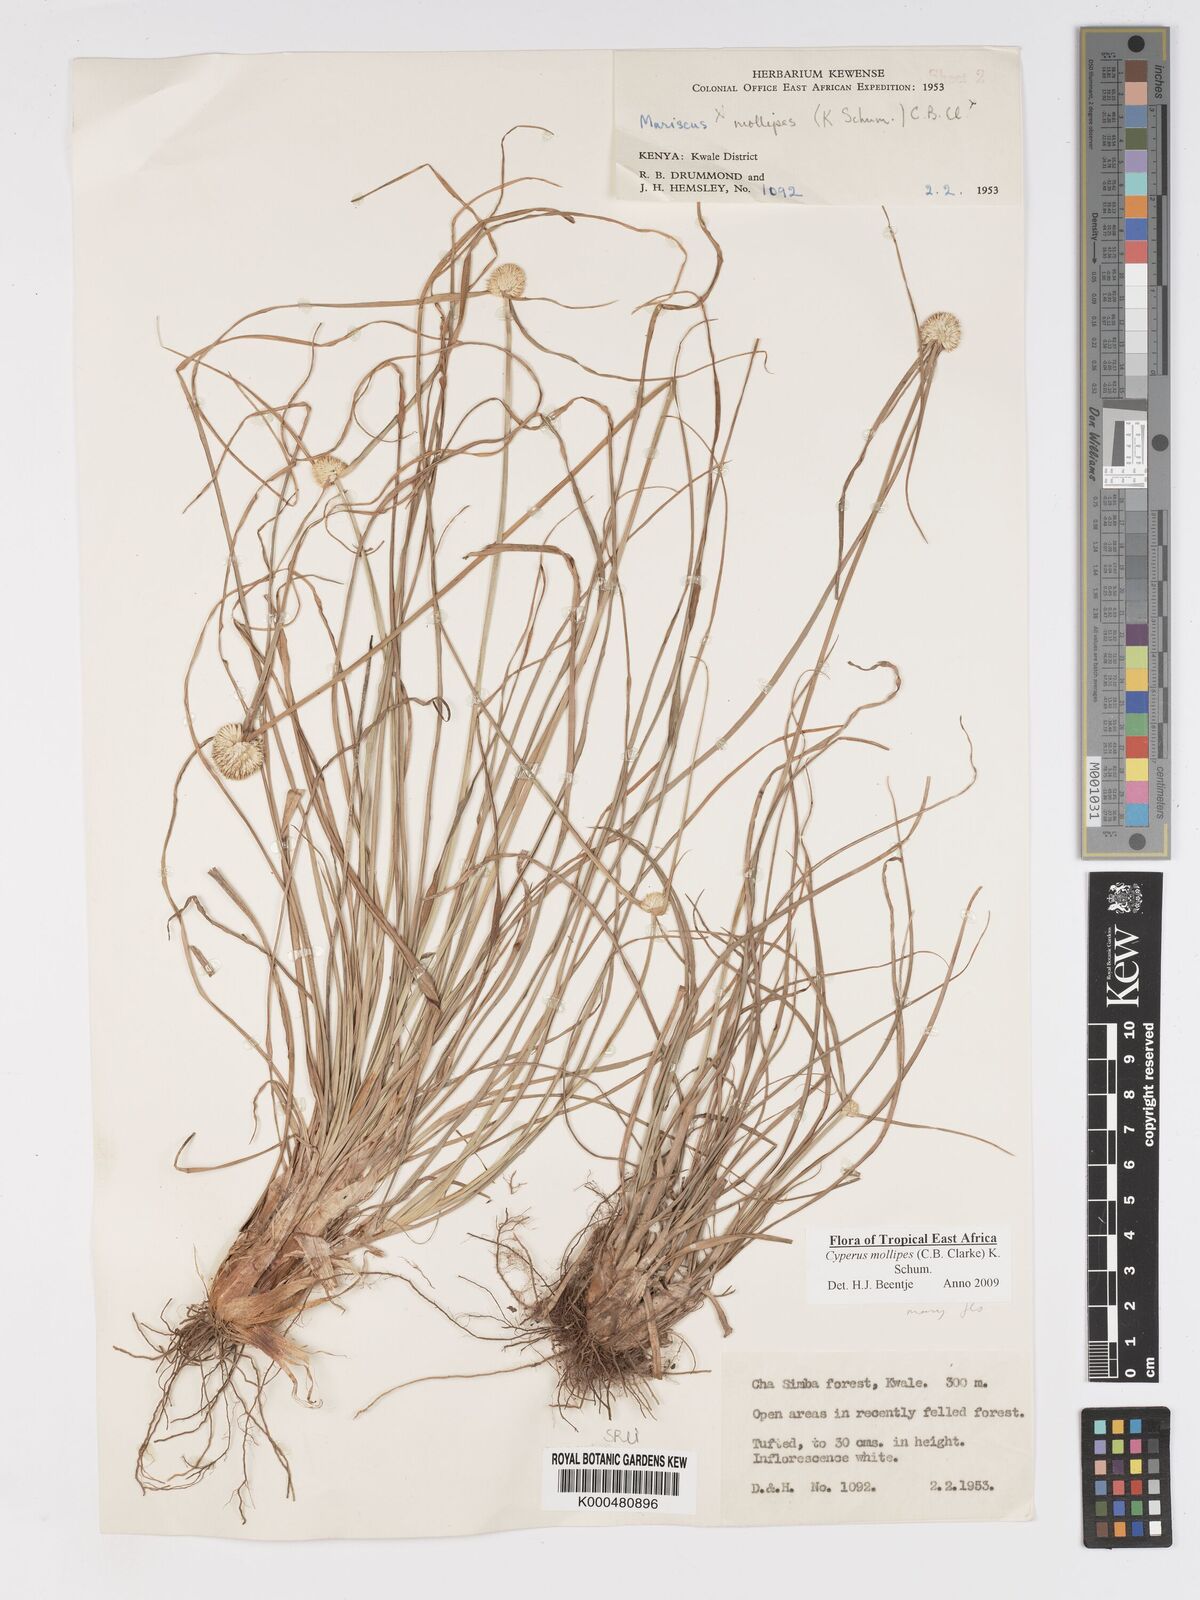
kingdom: Plantae
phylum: Tracheophyta
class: Liliopsida
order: Poales
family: Cyperaceae
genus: Cyperus
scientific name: Cyperus mollipes
